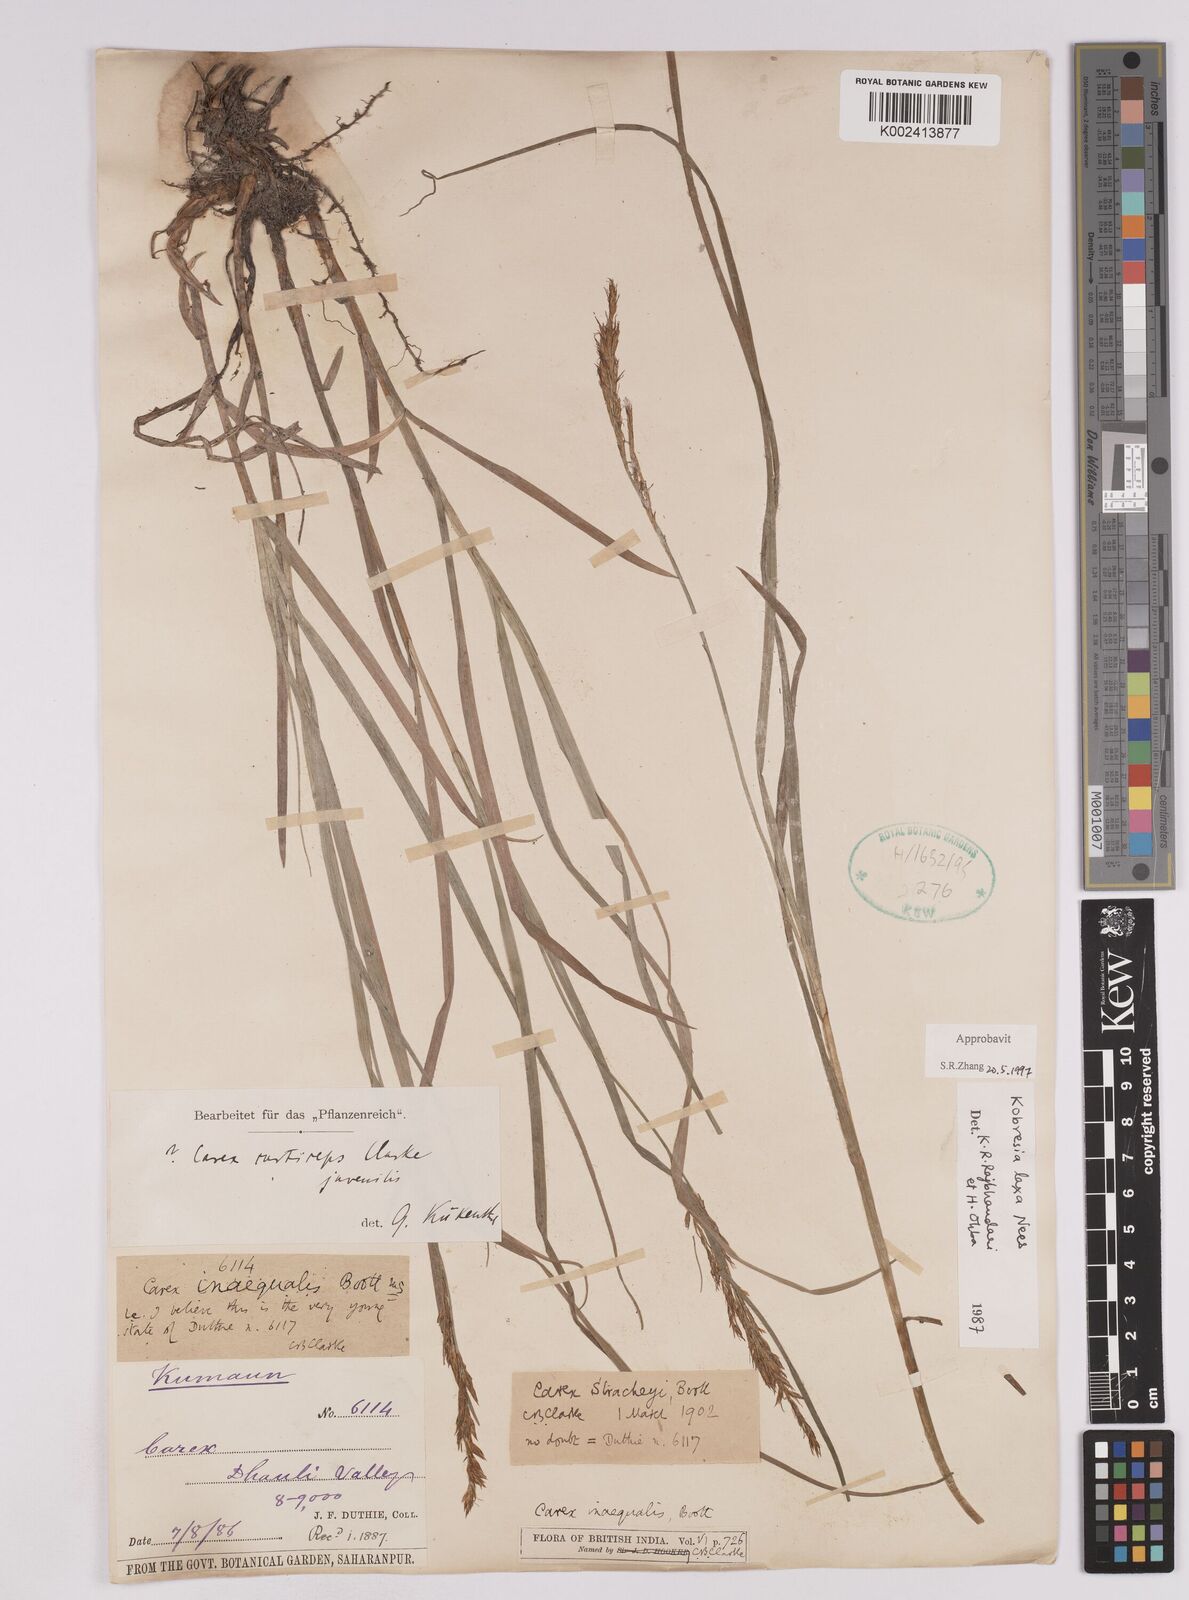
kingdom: Plantae
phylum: Tracheophyta
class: Liliopsida
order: Poales
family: Cyperaceae
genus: Carex
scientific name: Carex
